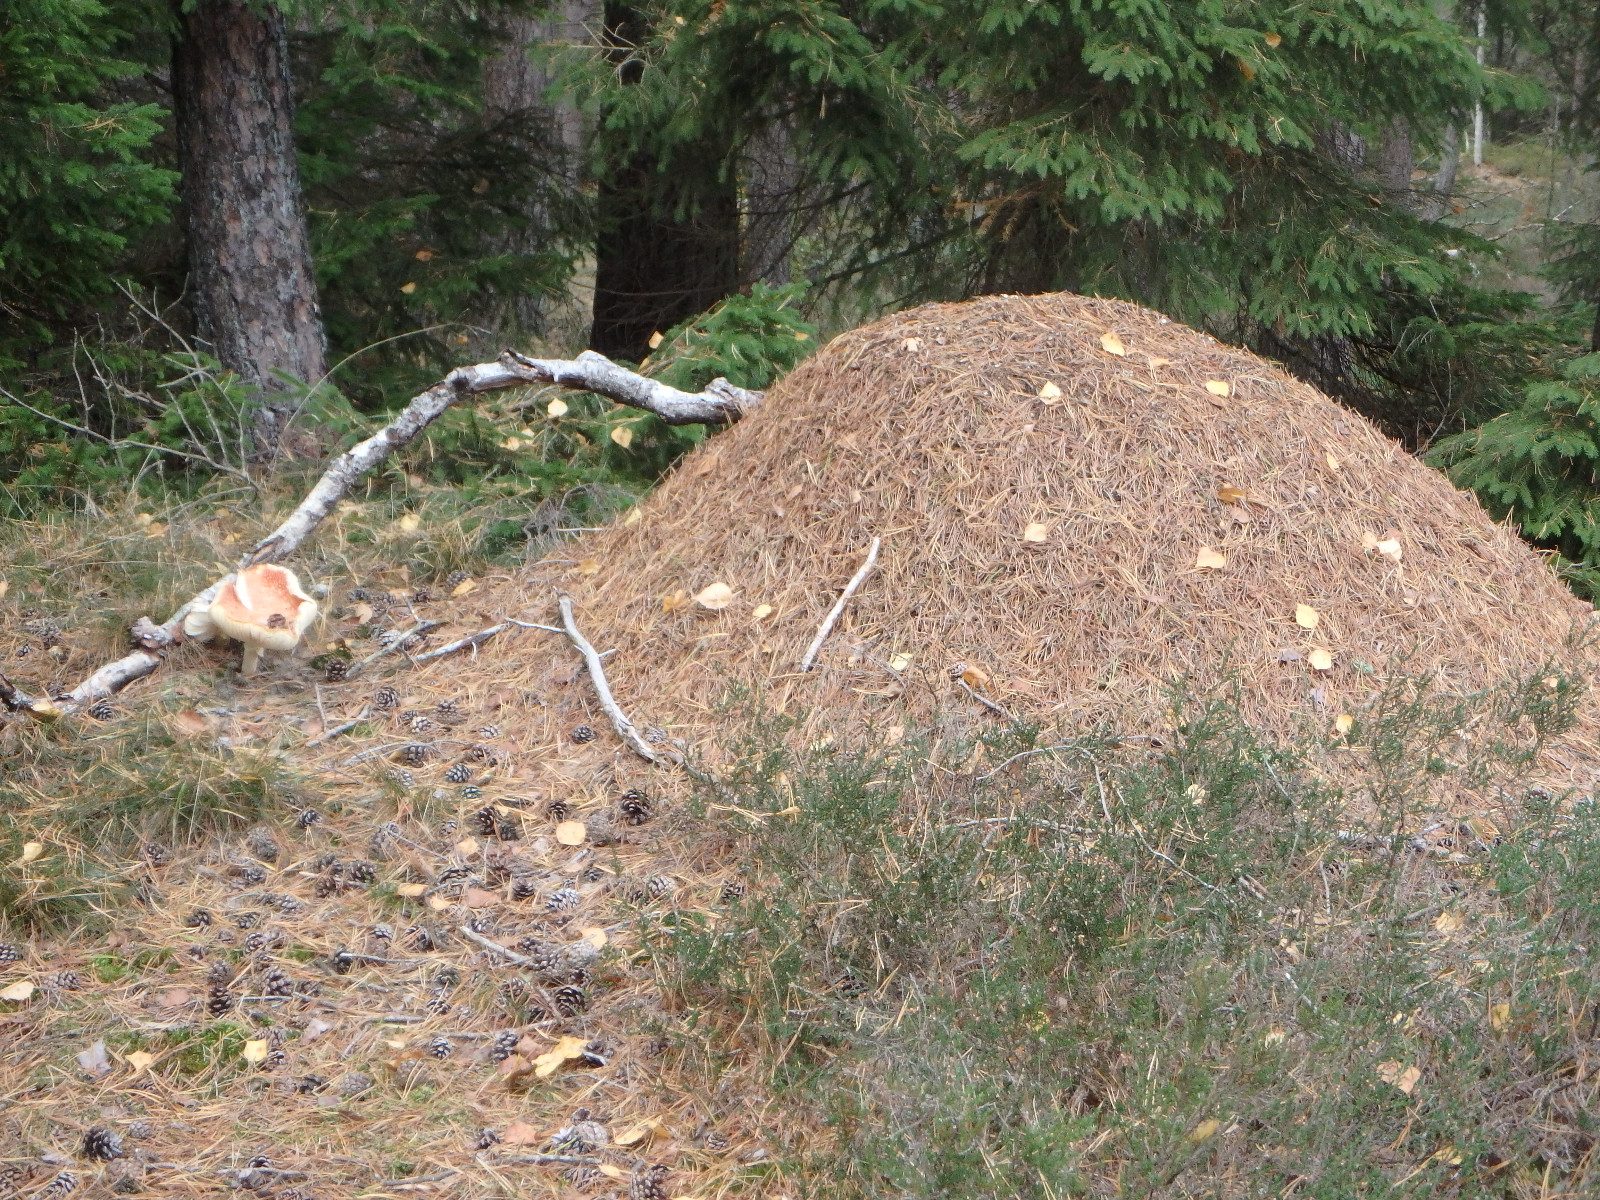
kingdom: Fungi
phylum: Basidiomycota
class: Agaricomycetes
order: Agaricales
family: Amanitaceae
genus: Amanita
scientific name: Amanita muscaria
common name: rød fluesvamp
